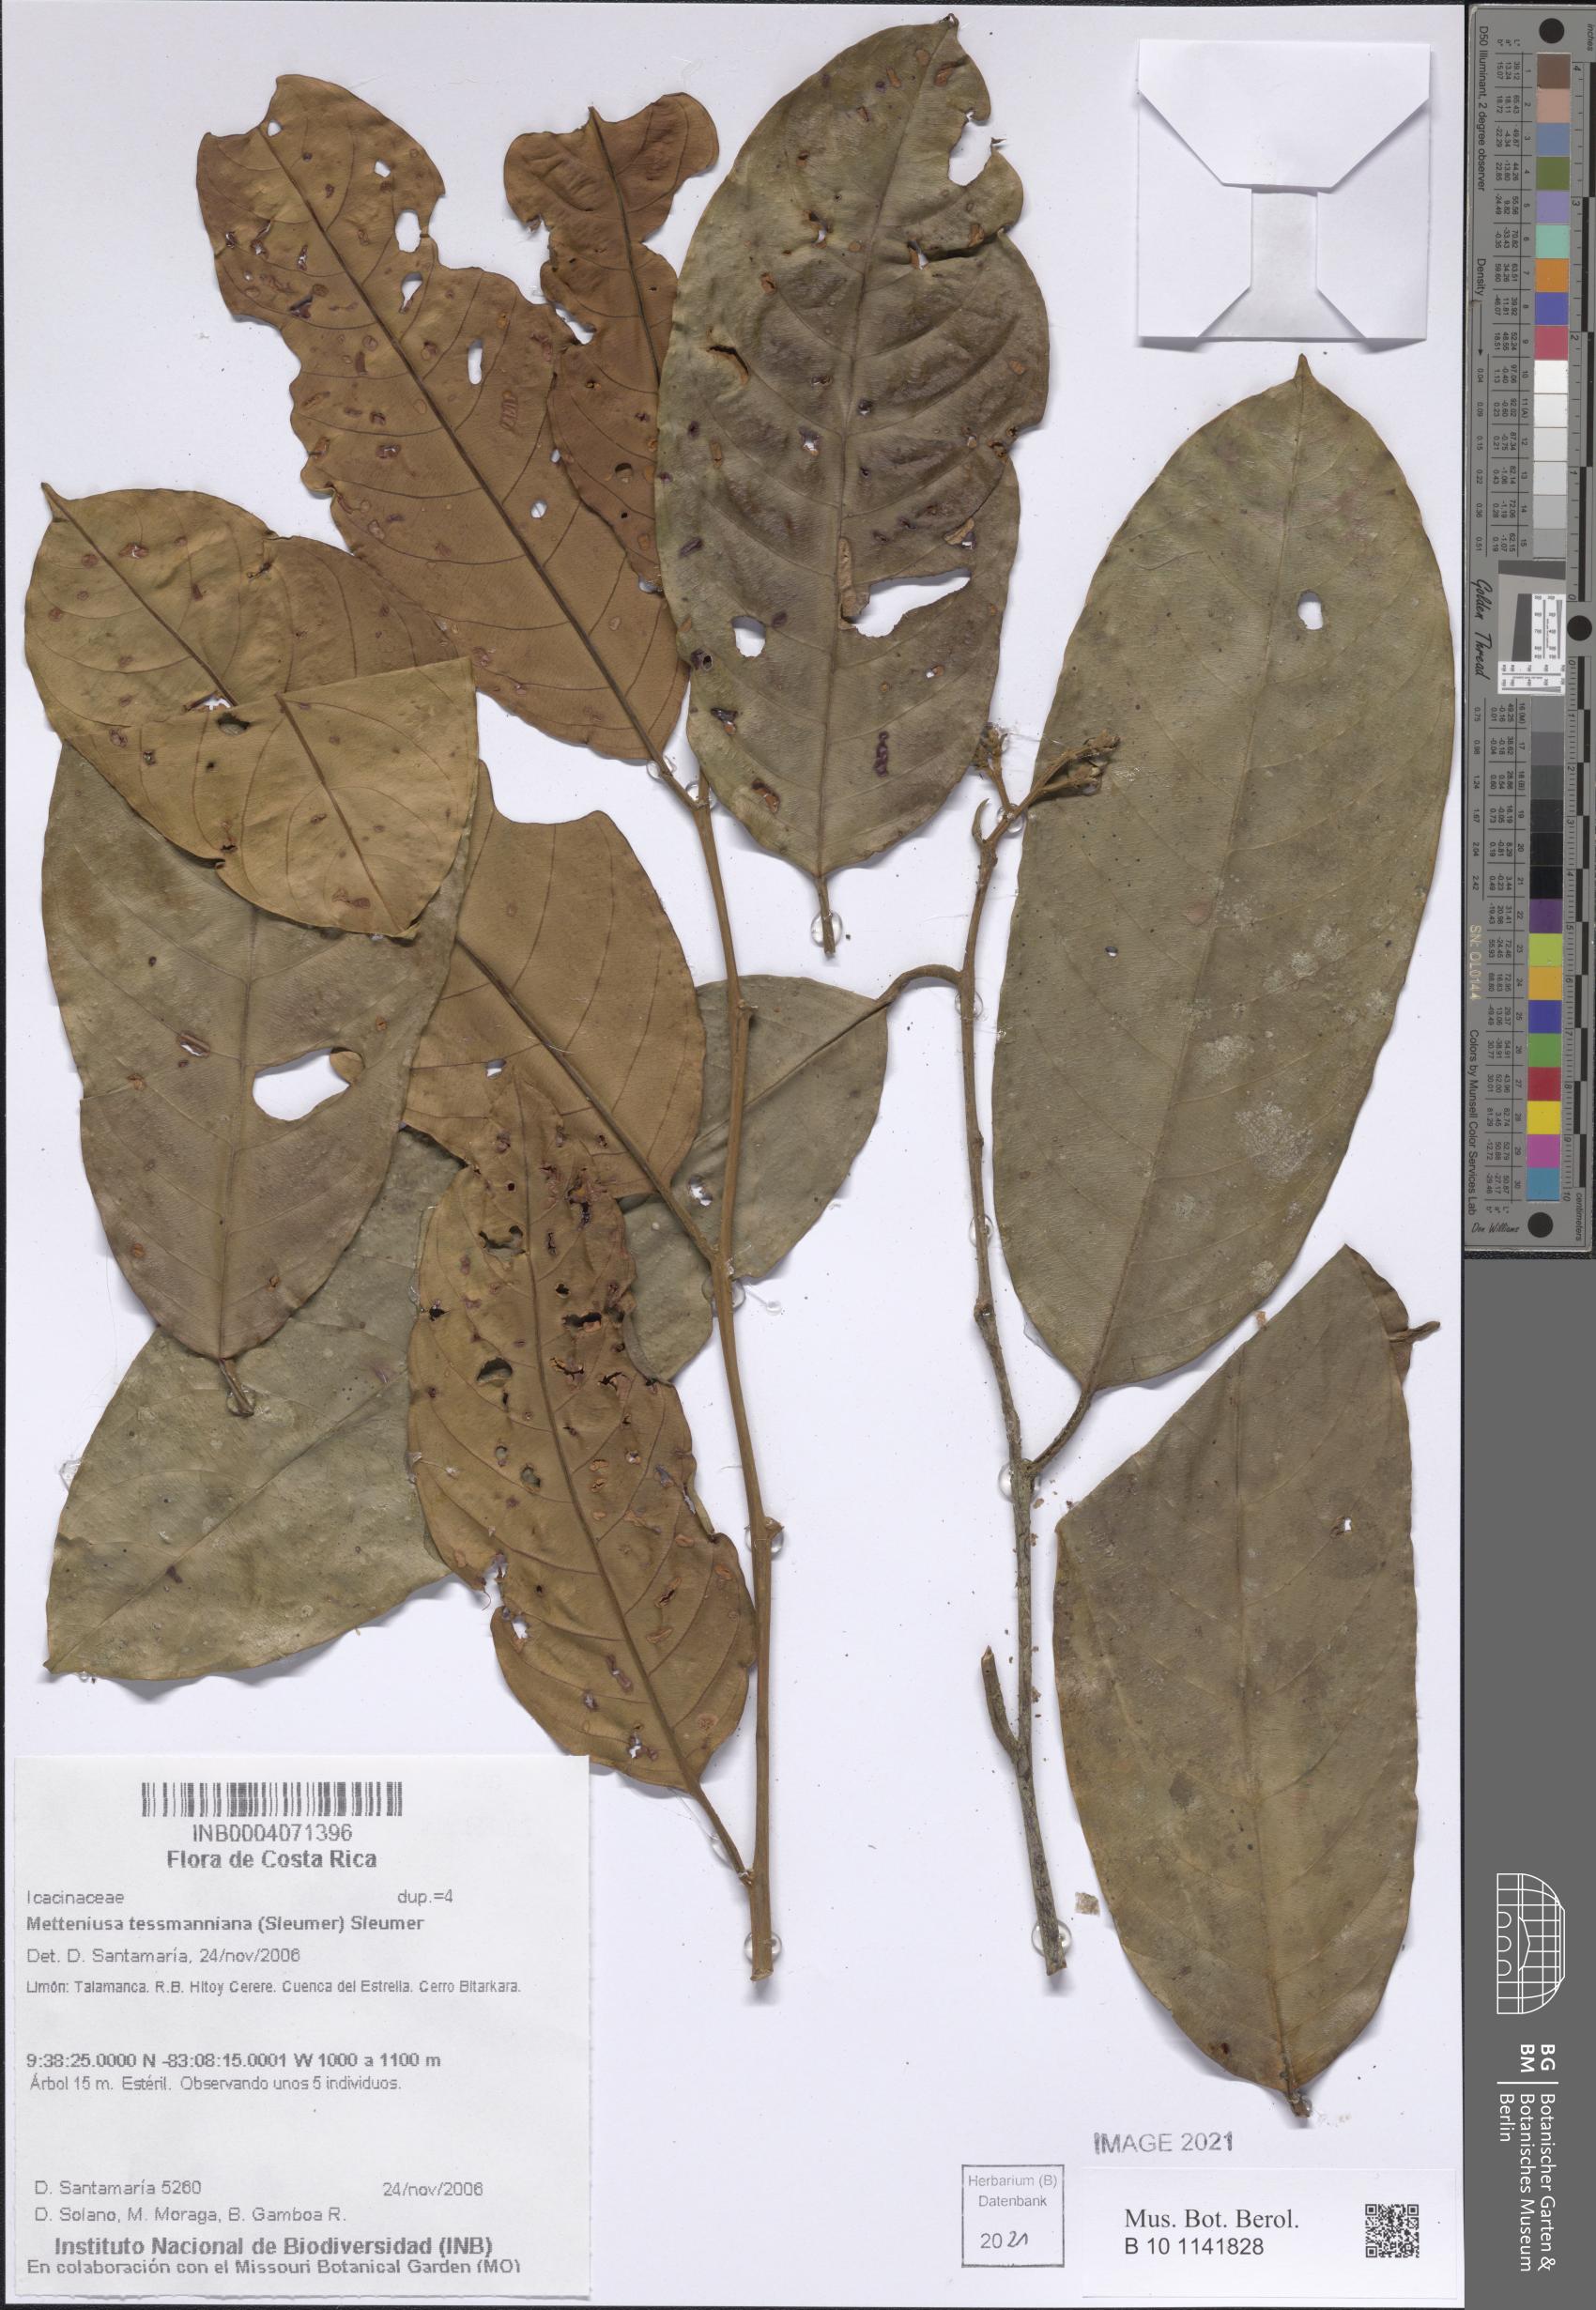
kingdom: Plantae
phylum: Tracheophyta
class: Magnoliopsida
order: Metteniusales
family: Metteniusaceae
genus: Metteniusa
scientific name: Metteniusa tessmanniana
